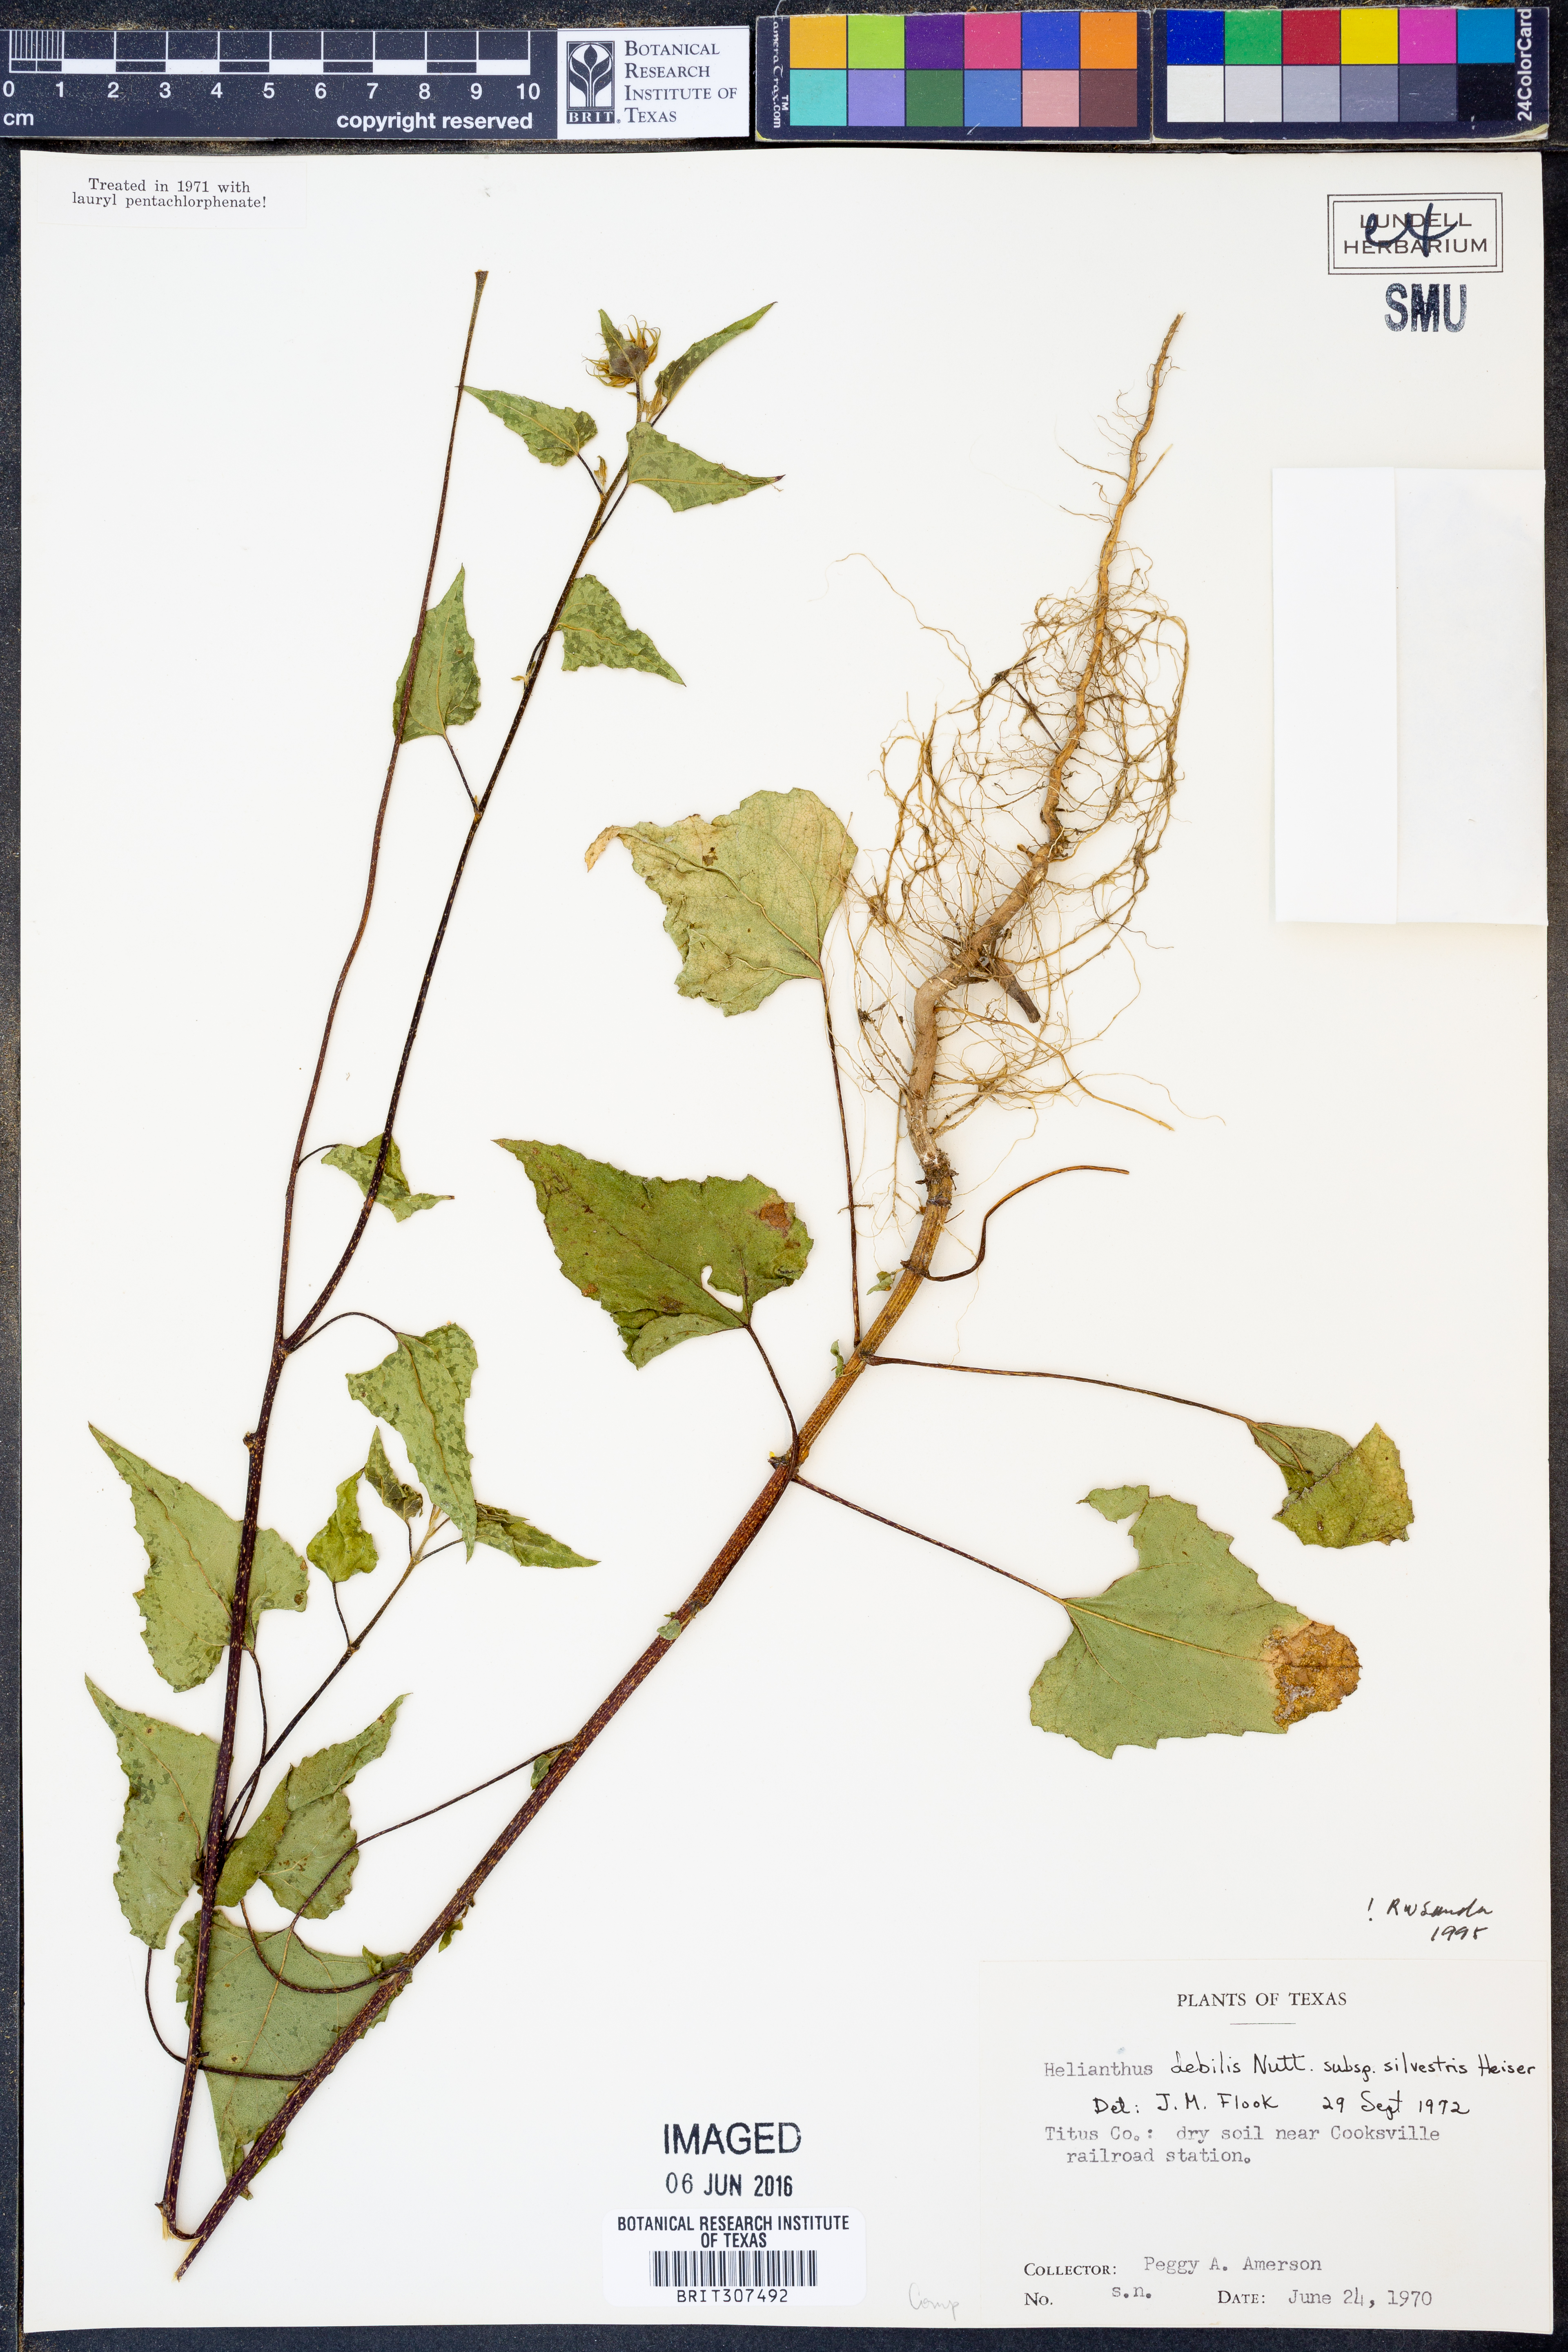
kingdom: Plantae
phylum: Tracheophyta
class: Magnoliopsida
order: Asterales
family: Asteraceae
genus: Helianthus
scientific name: Helianthus debilis
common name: Weak sunflower
